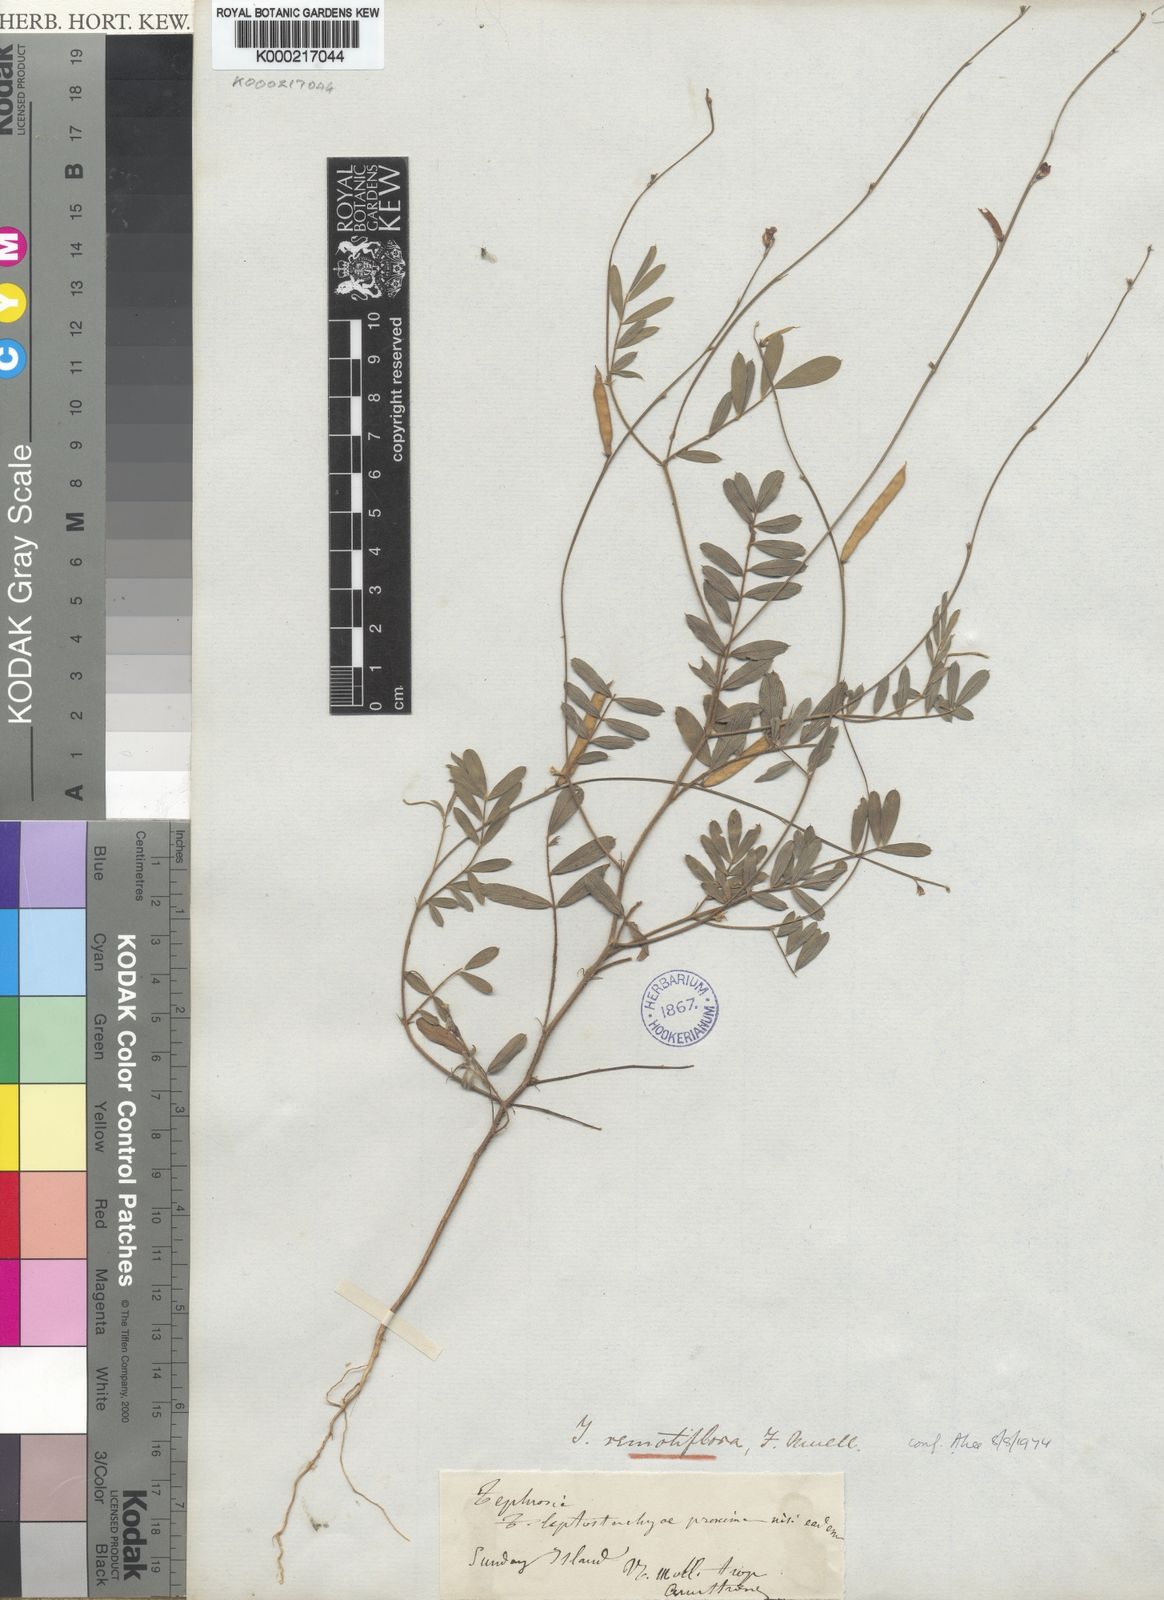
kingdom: Plantae
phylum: Tracheophyta
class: Magnoliopsida
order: Fabales
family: Fabaceae
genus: Tephrosia
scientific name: Tephrosia remotiflora
